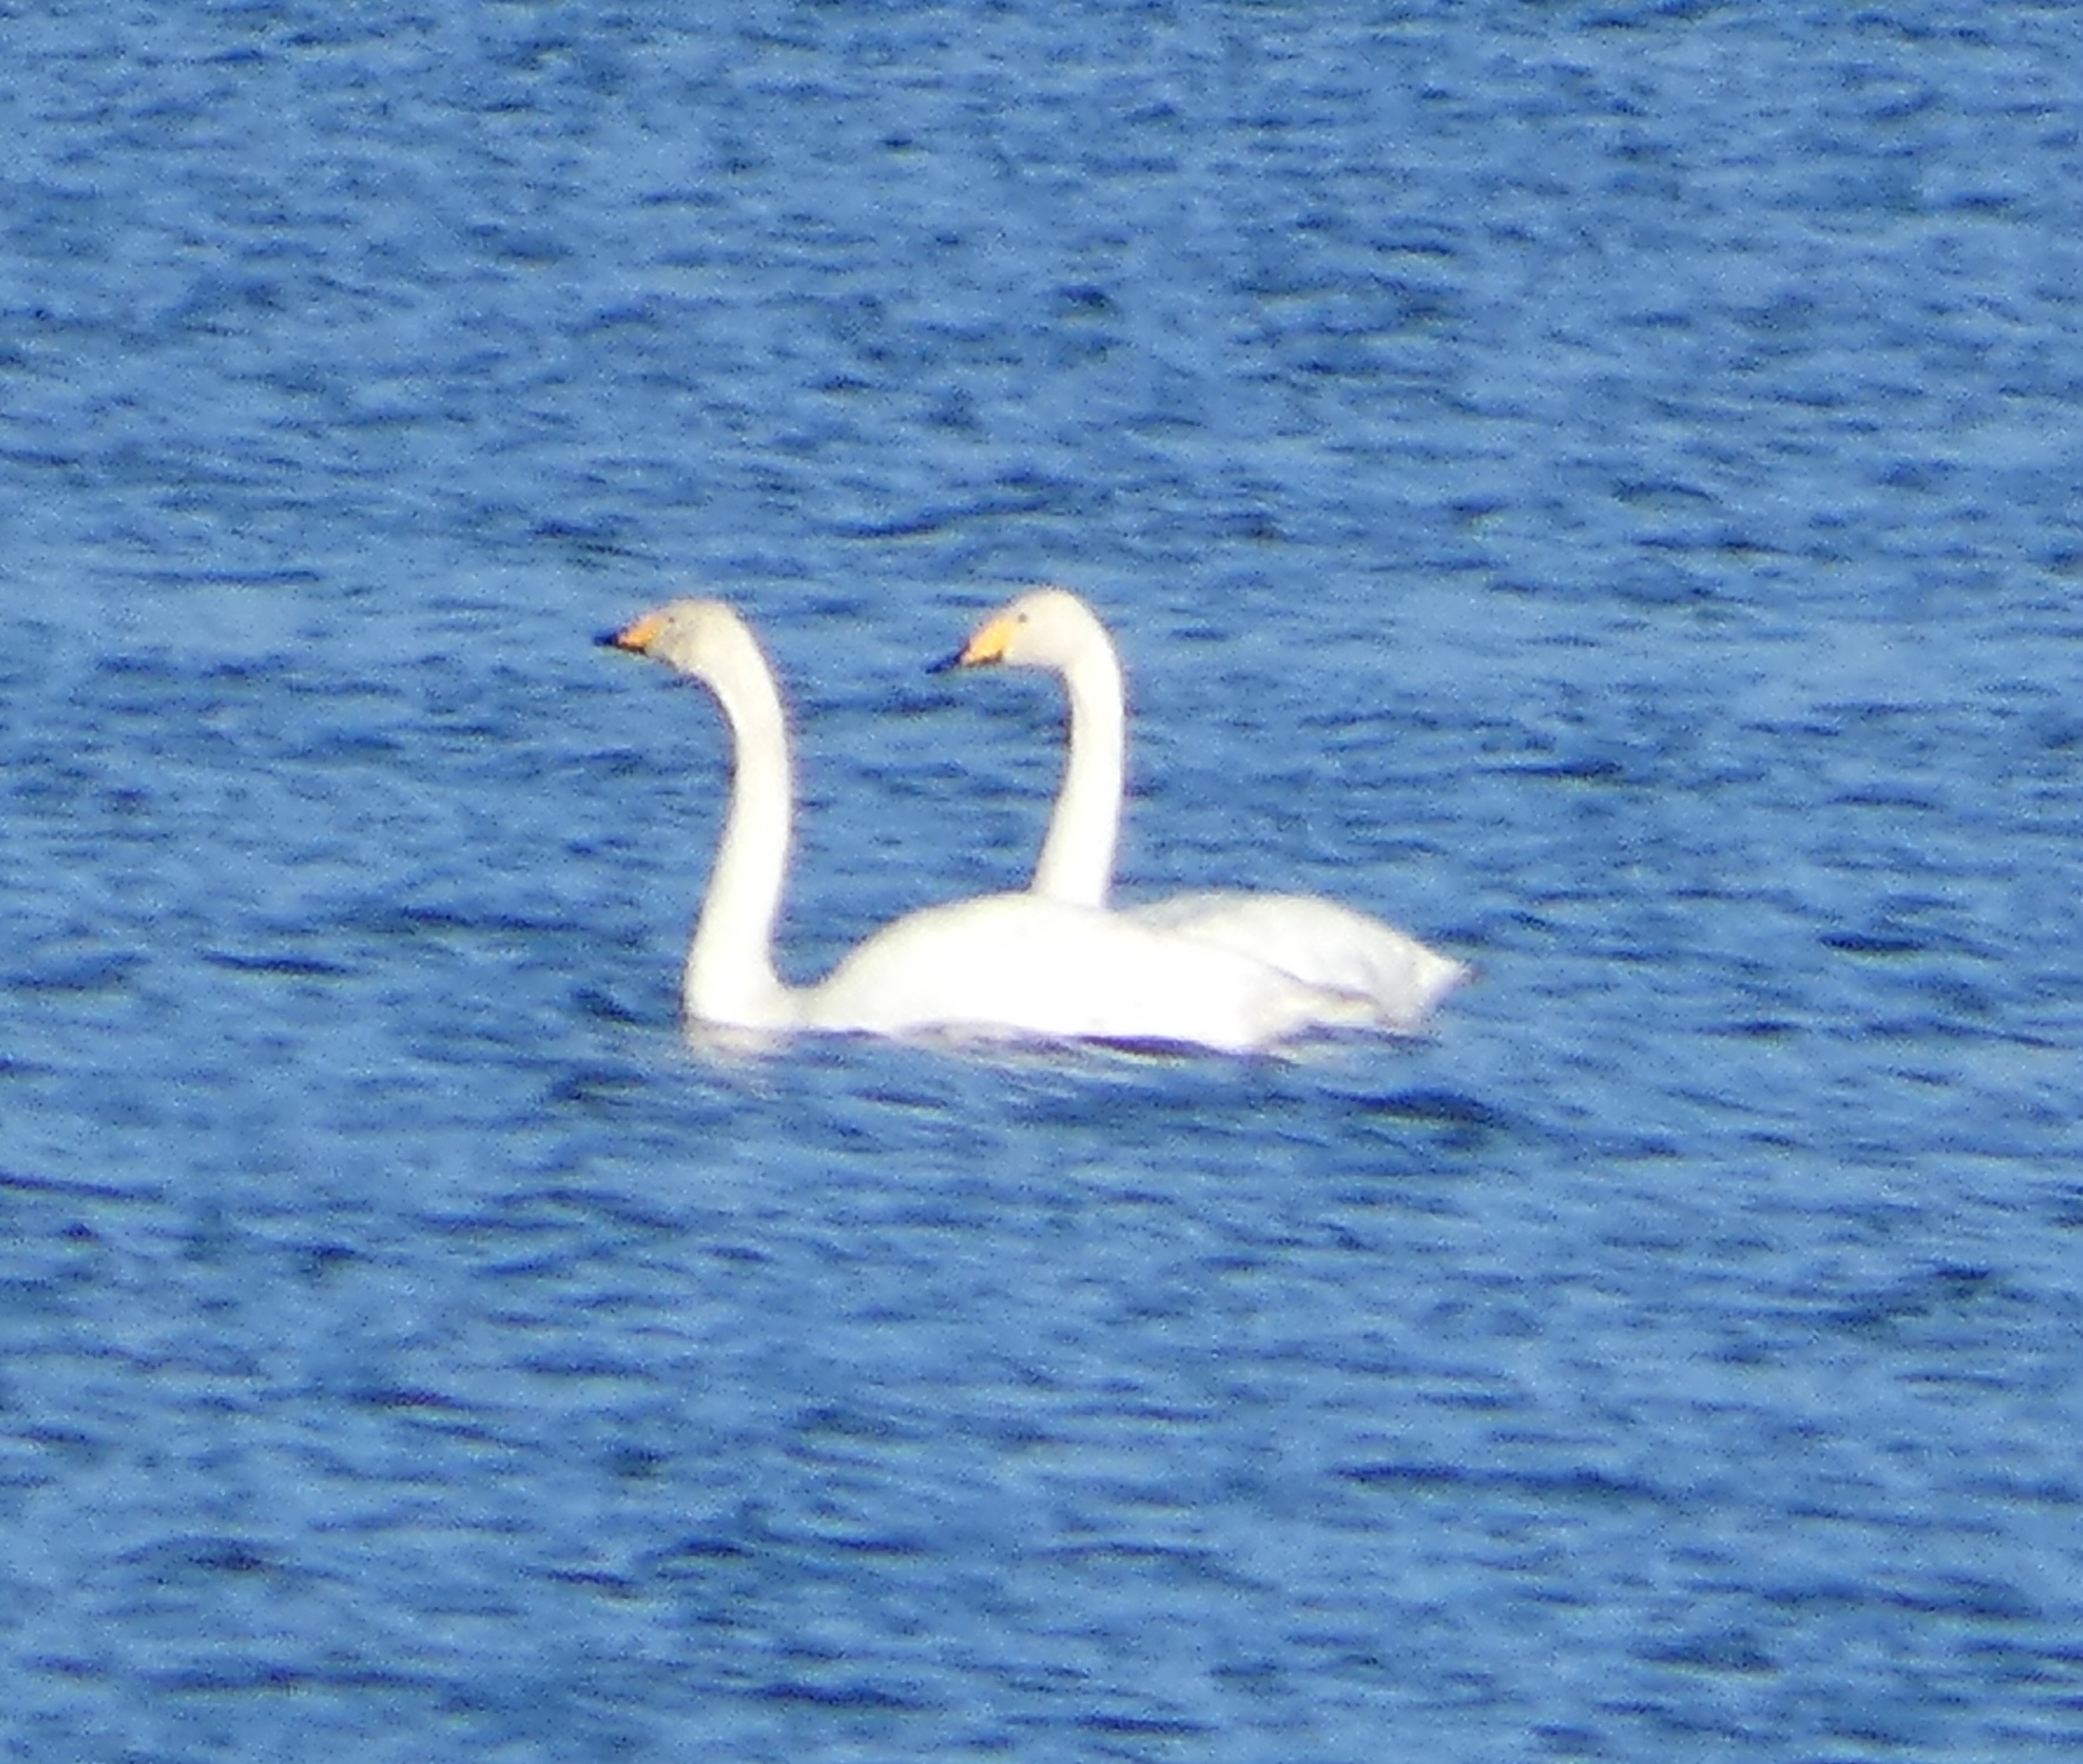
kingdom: Animalia
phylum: Chordata
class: Aves
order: Anseriformes
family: Anatidae
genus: Cygnus
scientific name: Cygnus cygnus
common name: Sangsvane
